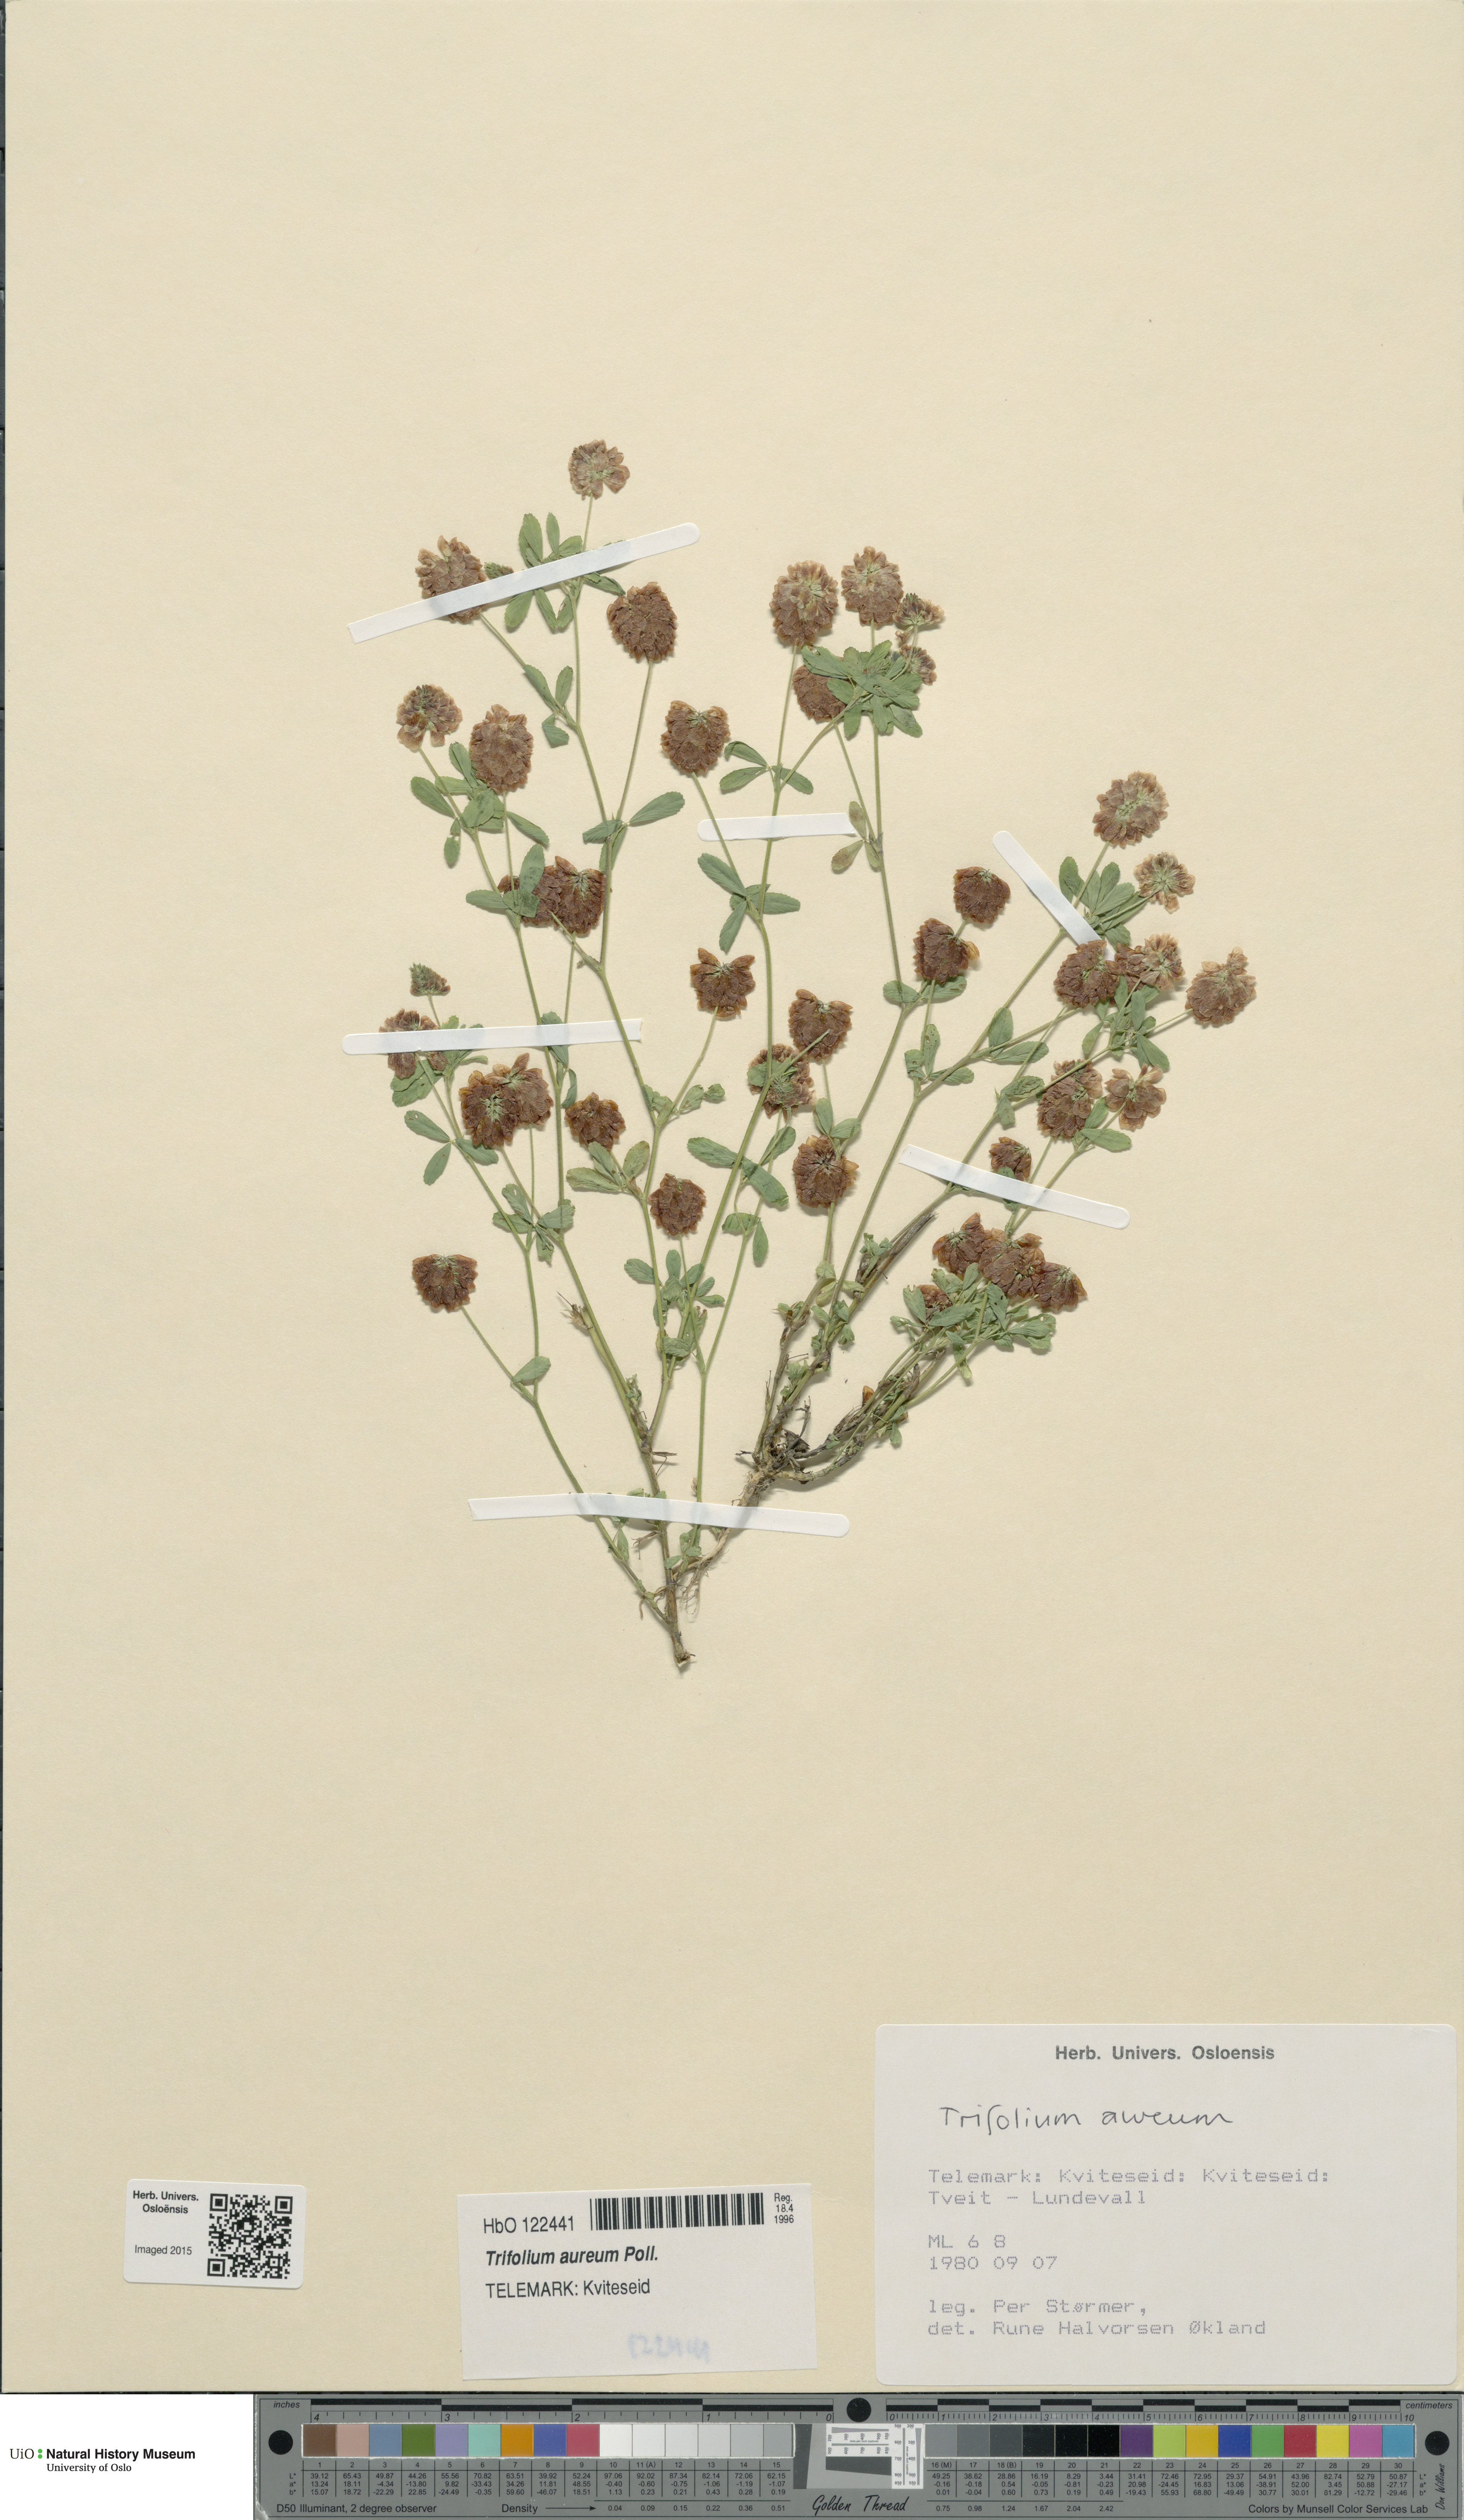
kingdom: Plantae
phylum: Tracheophyta
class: Magnoliopsida
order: Fabales
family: Fabaceae
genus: Trifolium
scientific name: Trifolium aureum
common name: Golden clover
